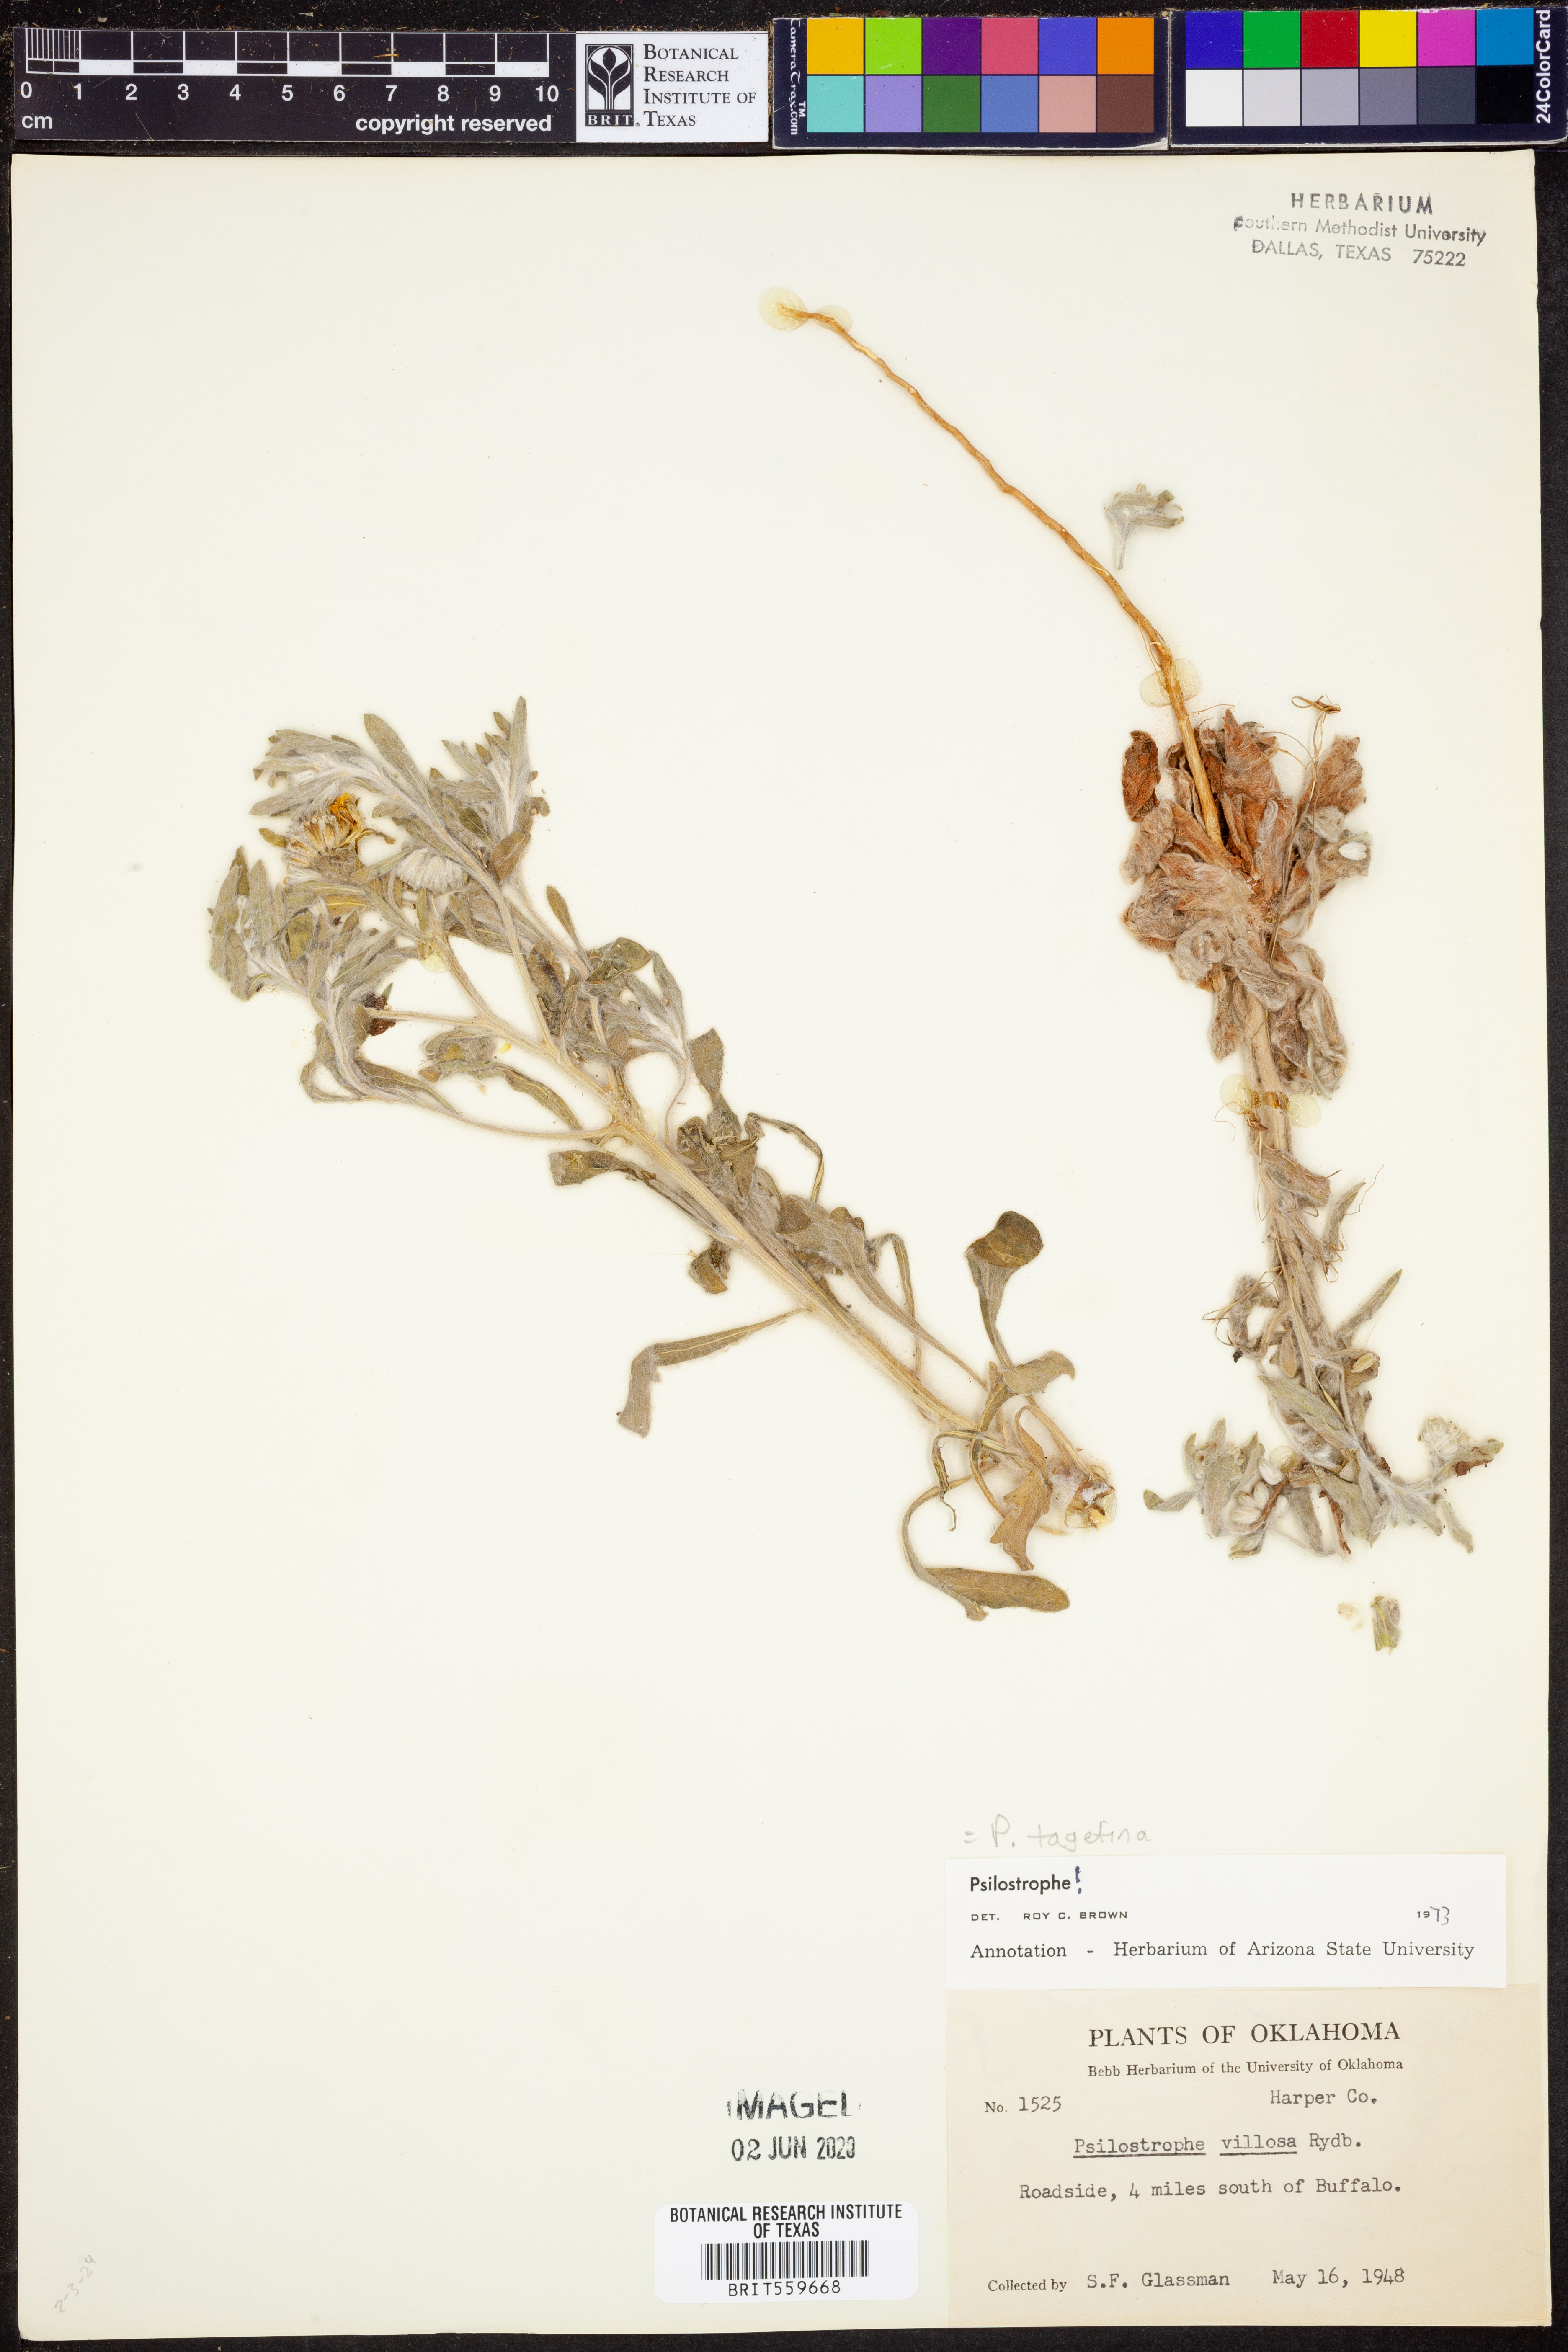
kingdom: Plantae
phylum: Tracheophyta
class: Magnoliopsida
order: Asterales
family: Asteraceae
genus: Psilostrophe
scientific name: Psilostrophe tagetina
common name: Marigold paper-flower
